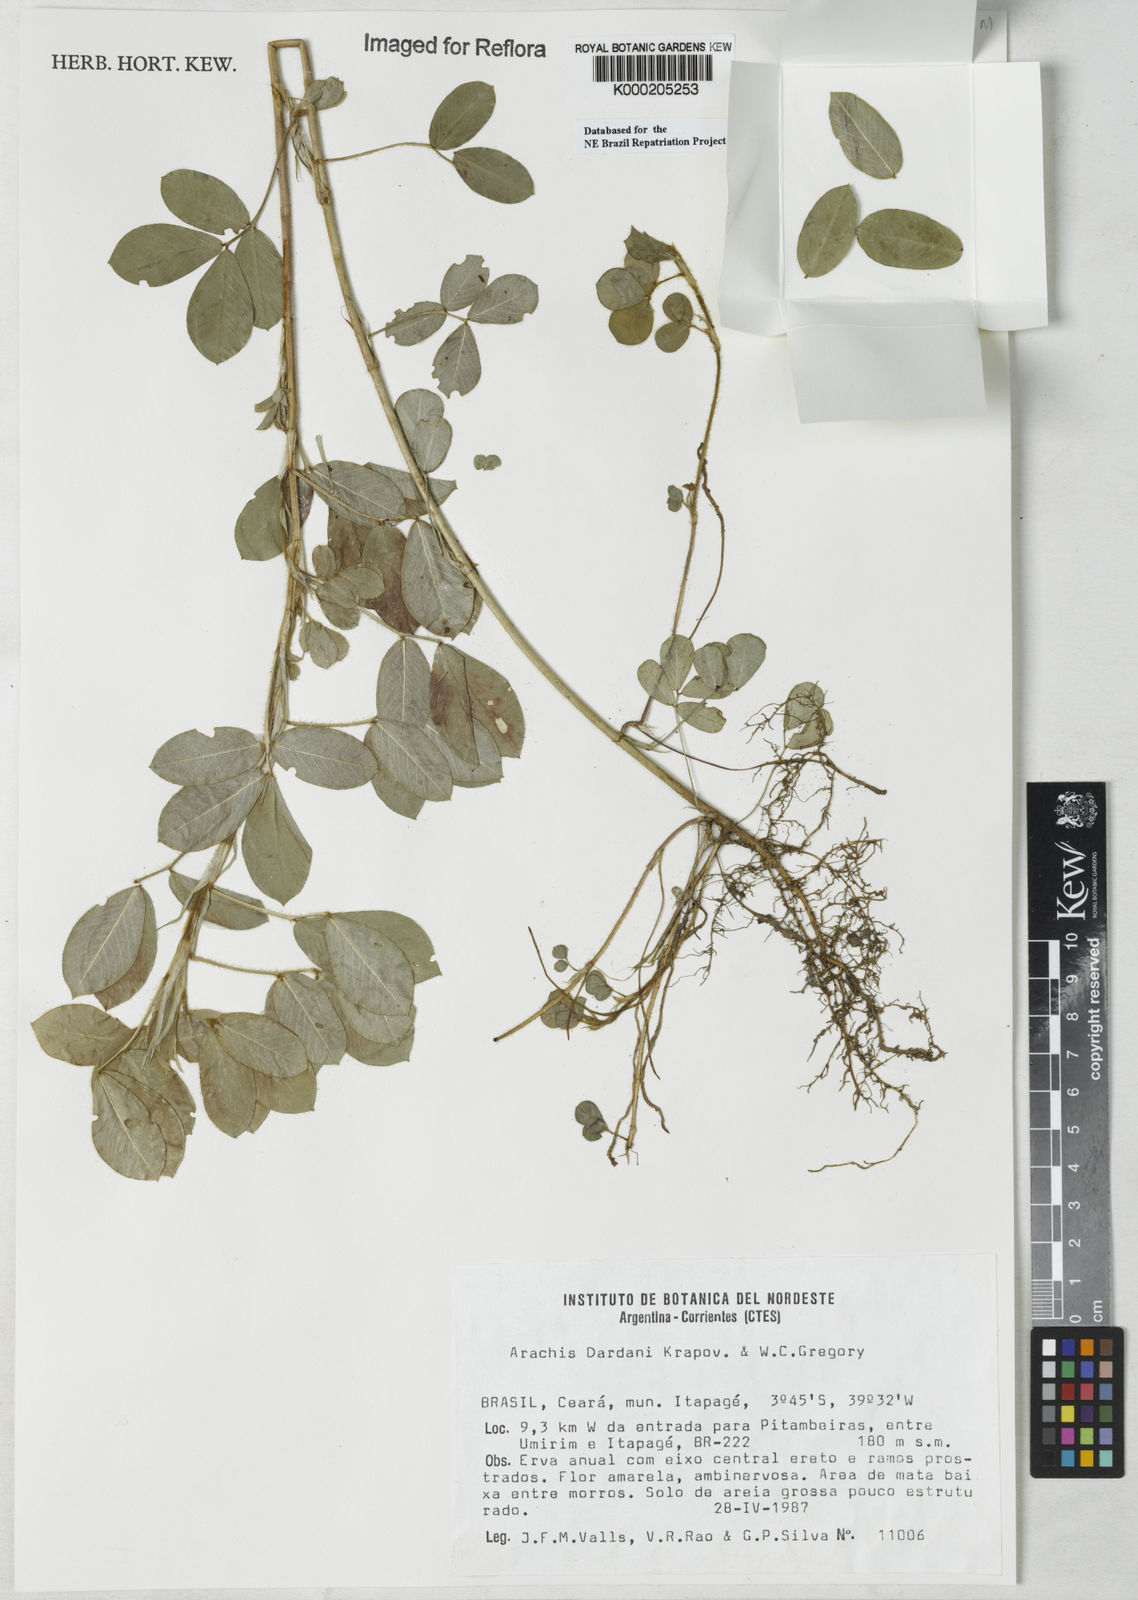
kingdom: Plantae
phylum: Tracheophyta
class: Magnoliopsida
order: Fabales
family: Fabaceae
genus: Arachis
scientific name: Arachis
